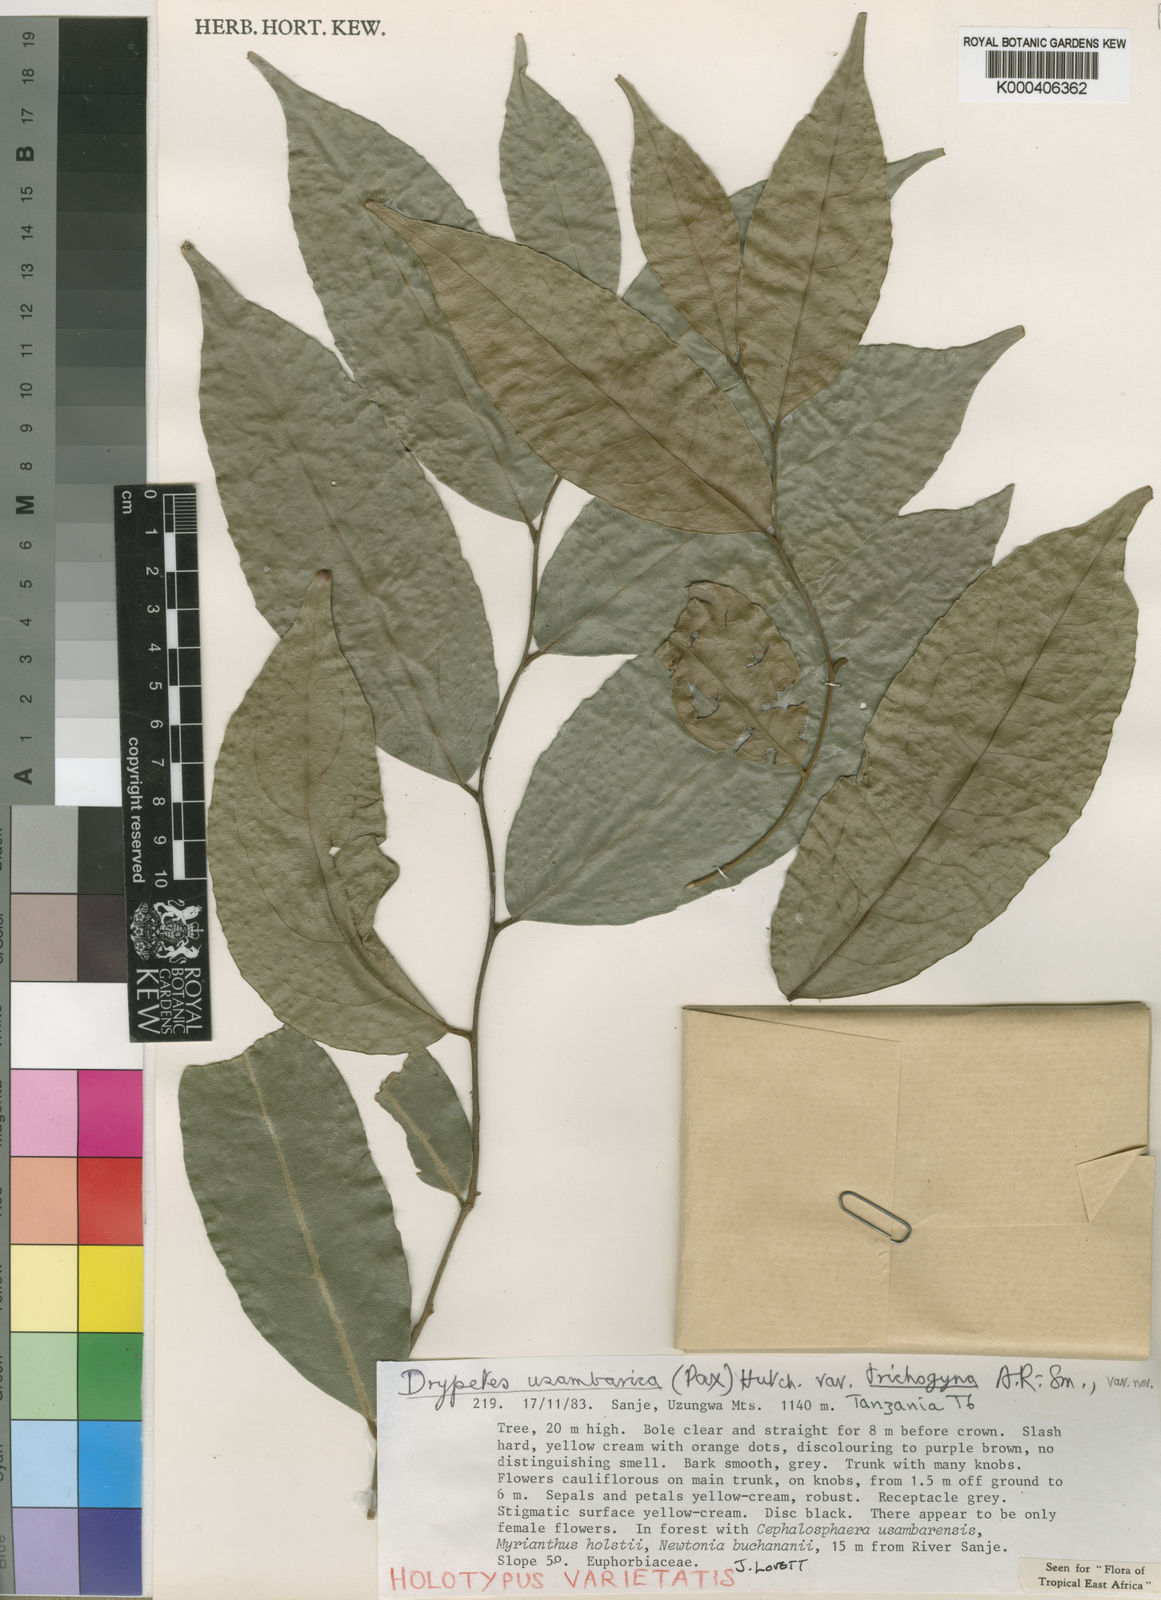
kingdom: Plantae
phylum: Tracheophyta
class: Magnoliopsida
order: Malpighiales
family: Putranjivaceae
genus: Drypetes
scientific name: Drypetes usambarica
